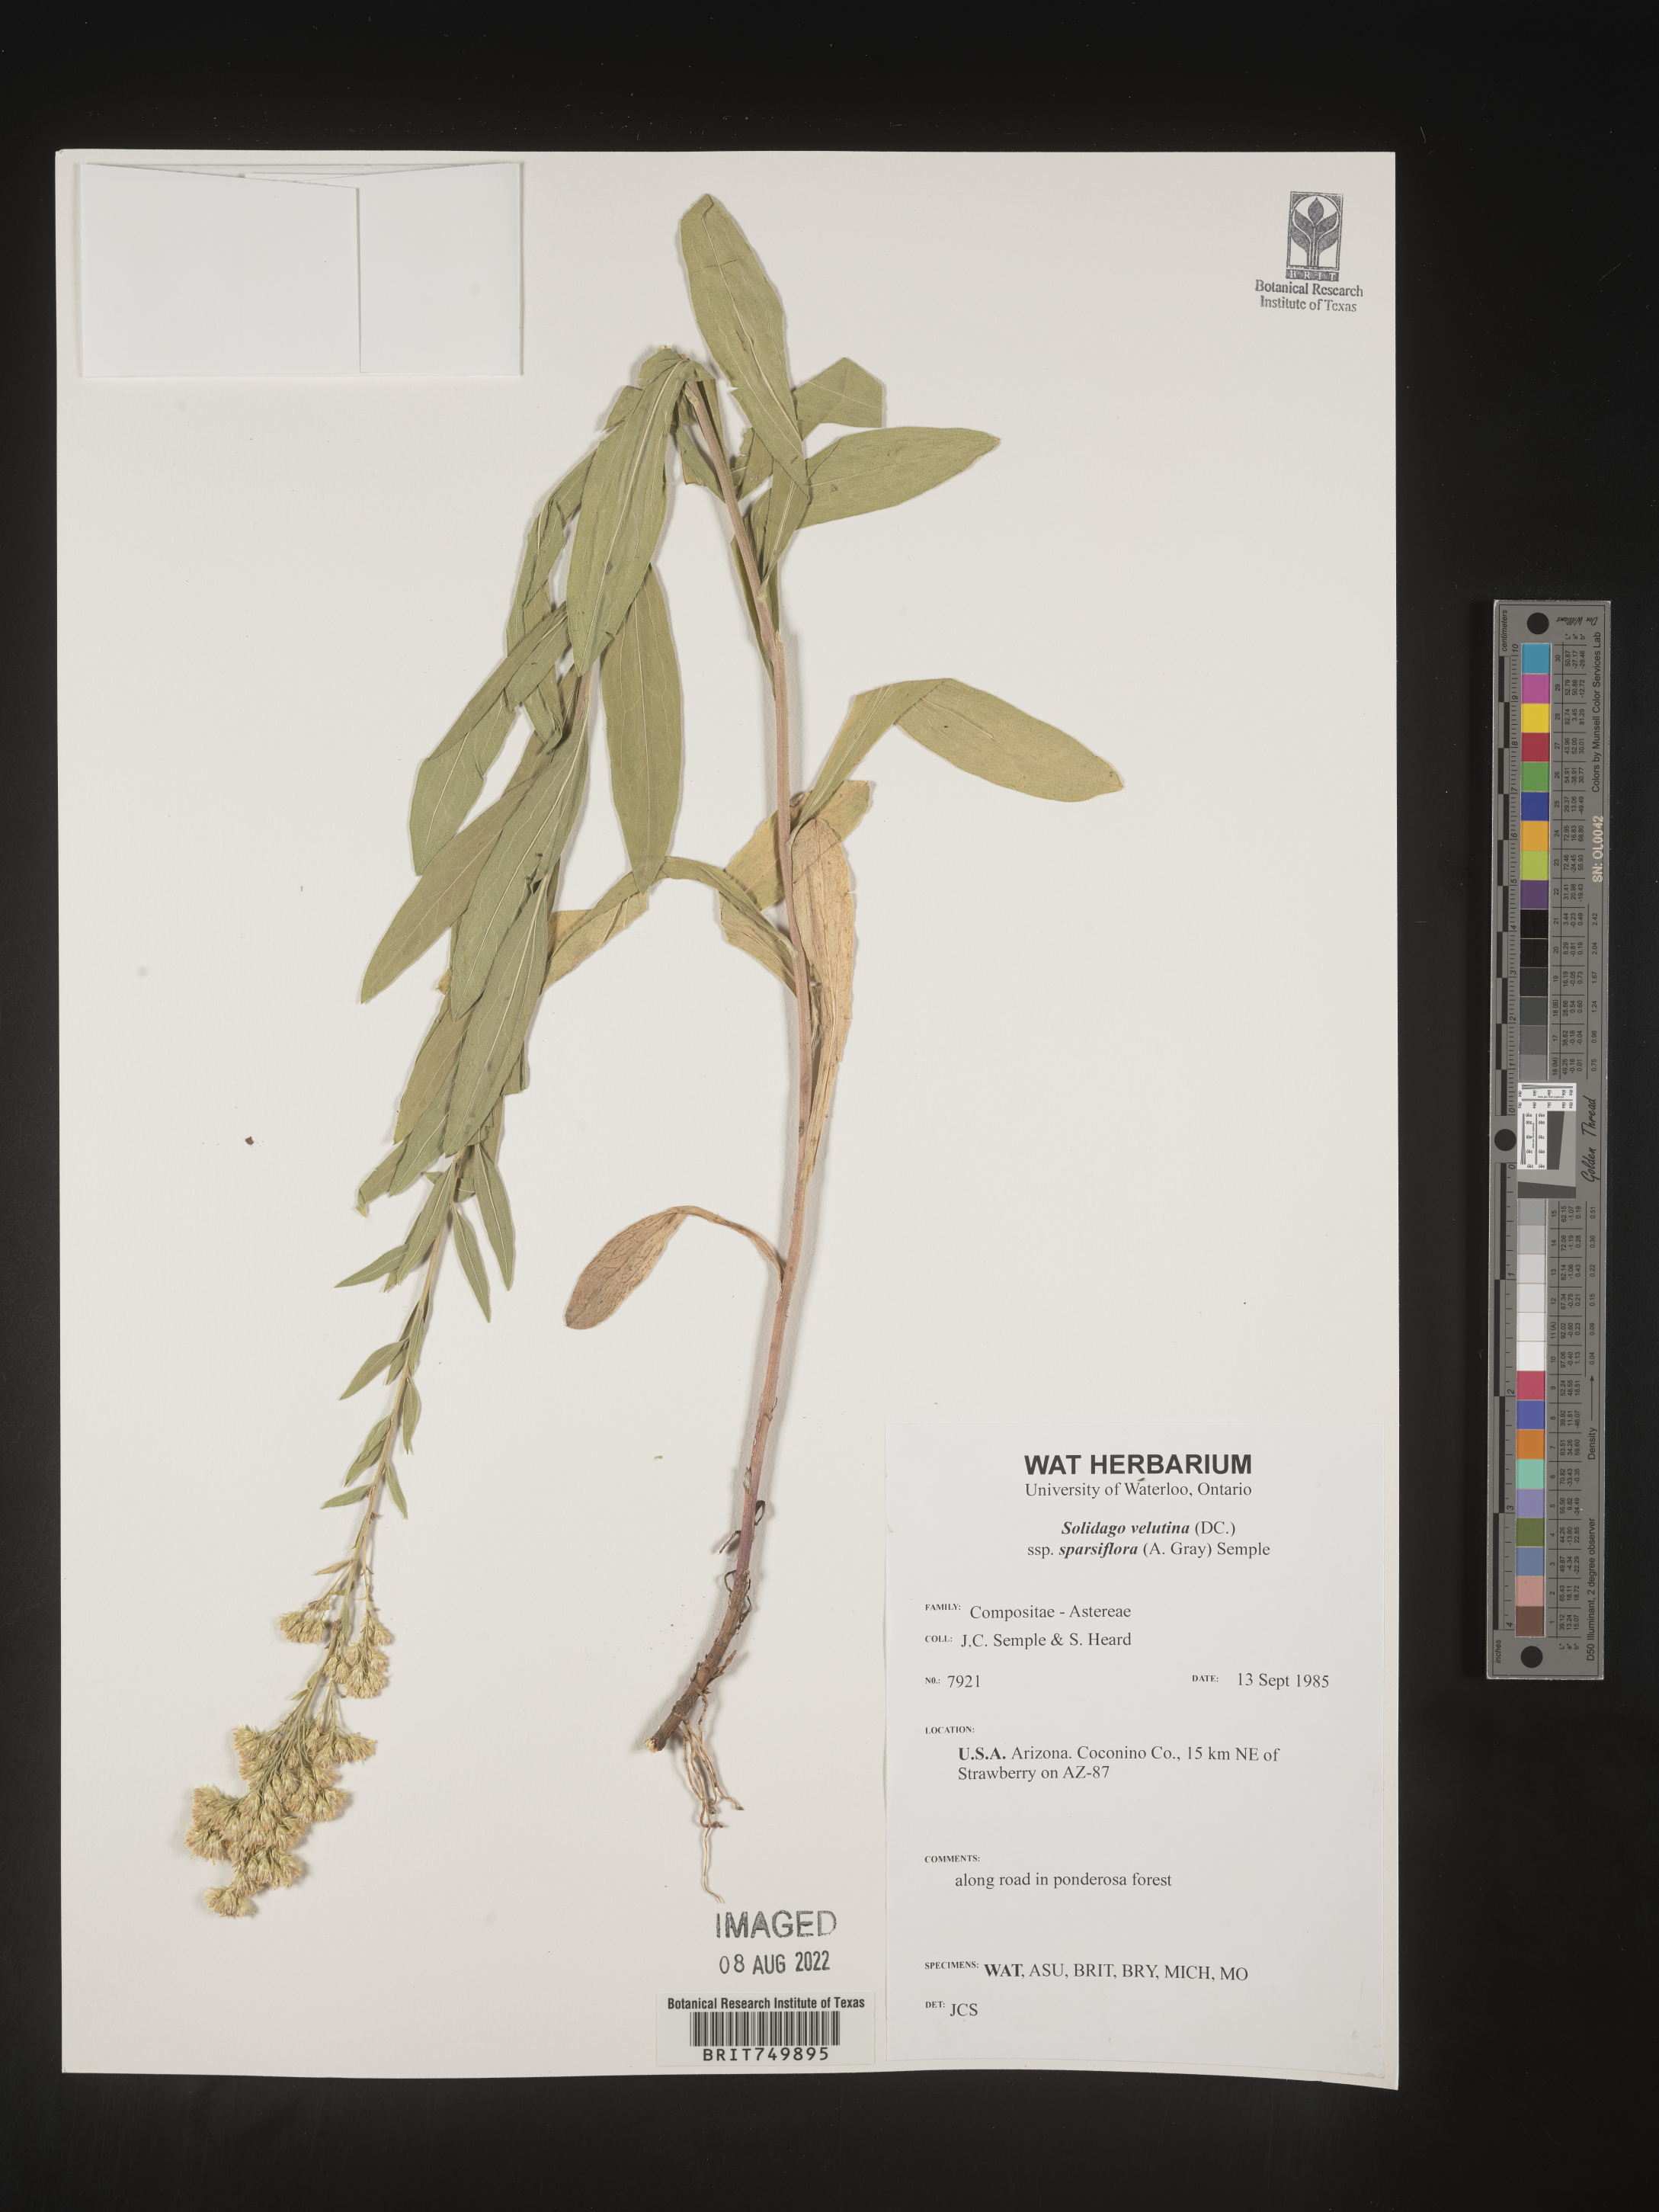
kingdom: Plantae
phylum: Tracheophyta
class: Magnoliopsida
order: Asterales
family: Asteraceae
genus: Solidago
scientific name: Solidago velutina
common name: Three-nerve goldenrod
